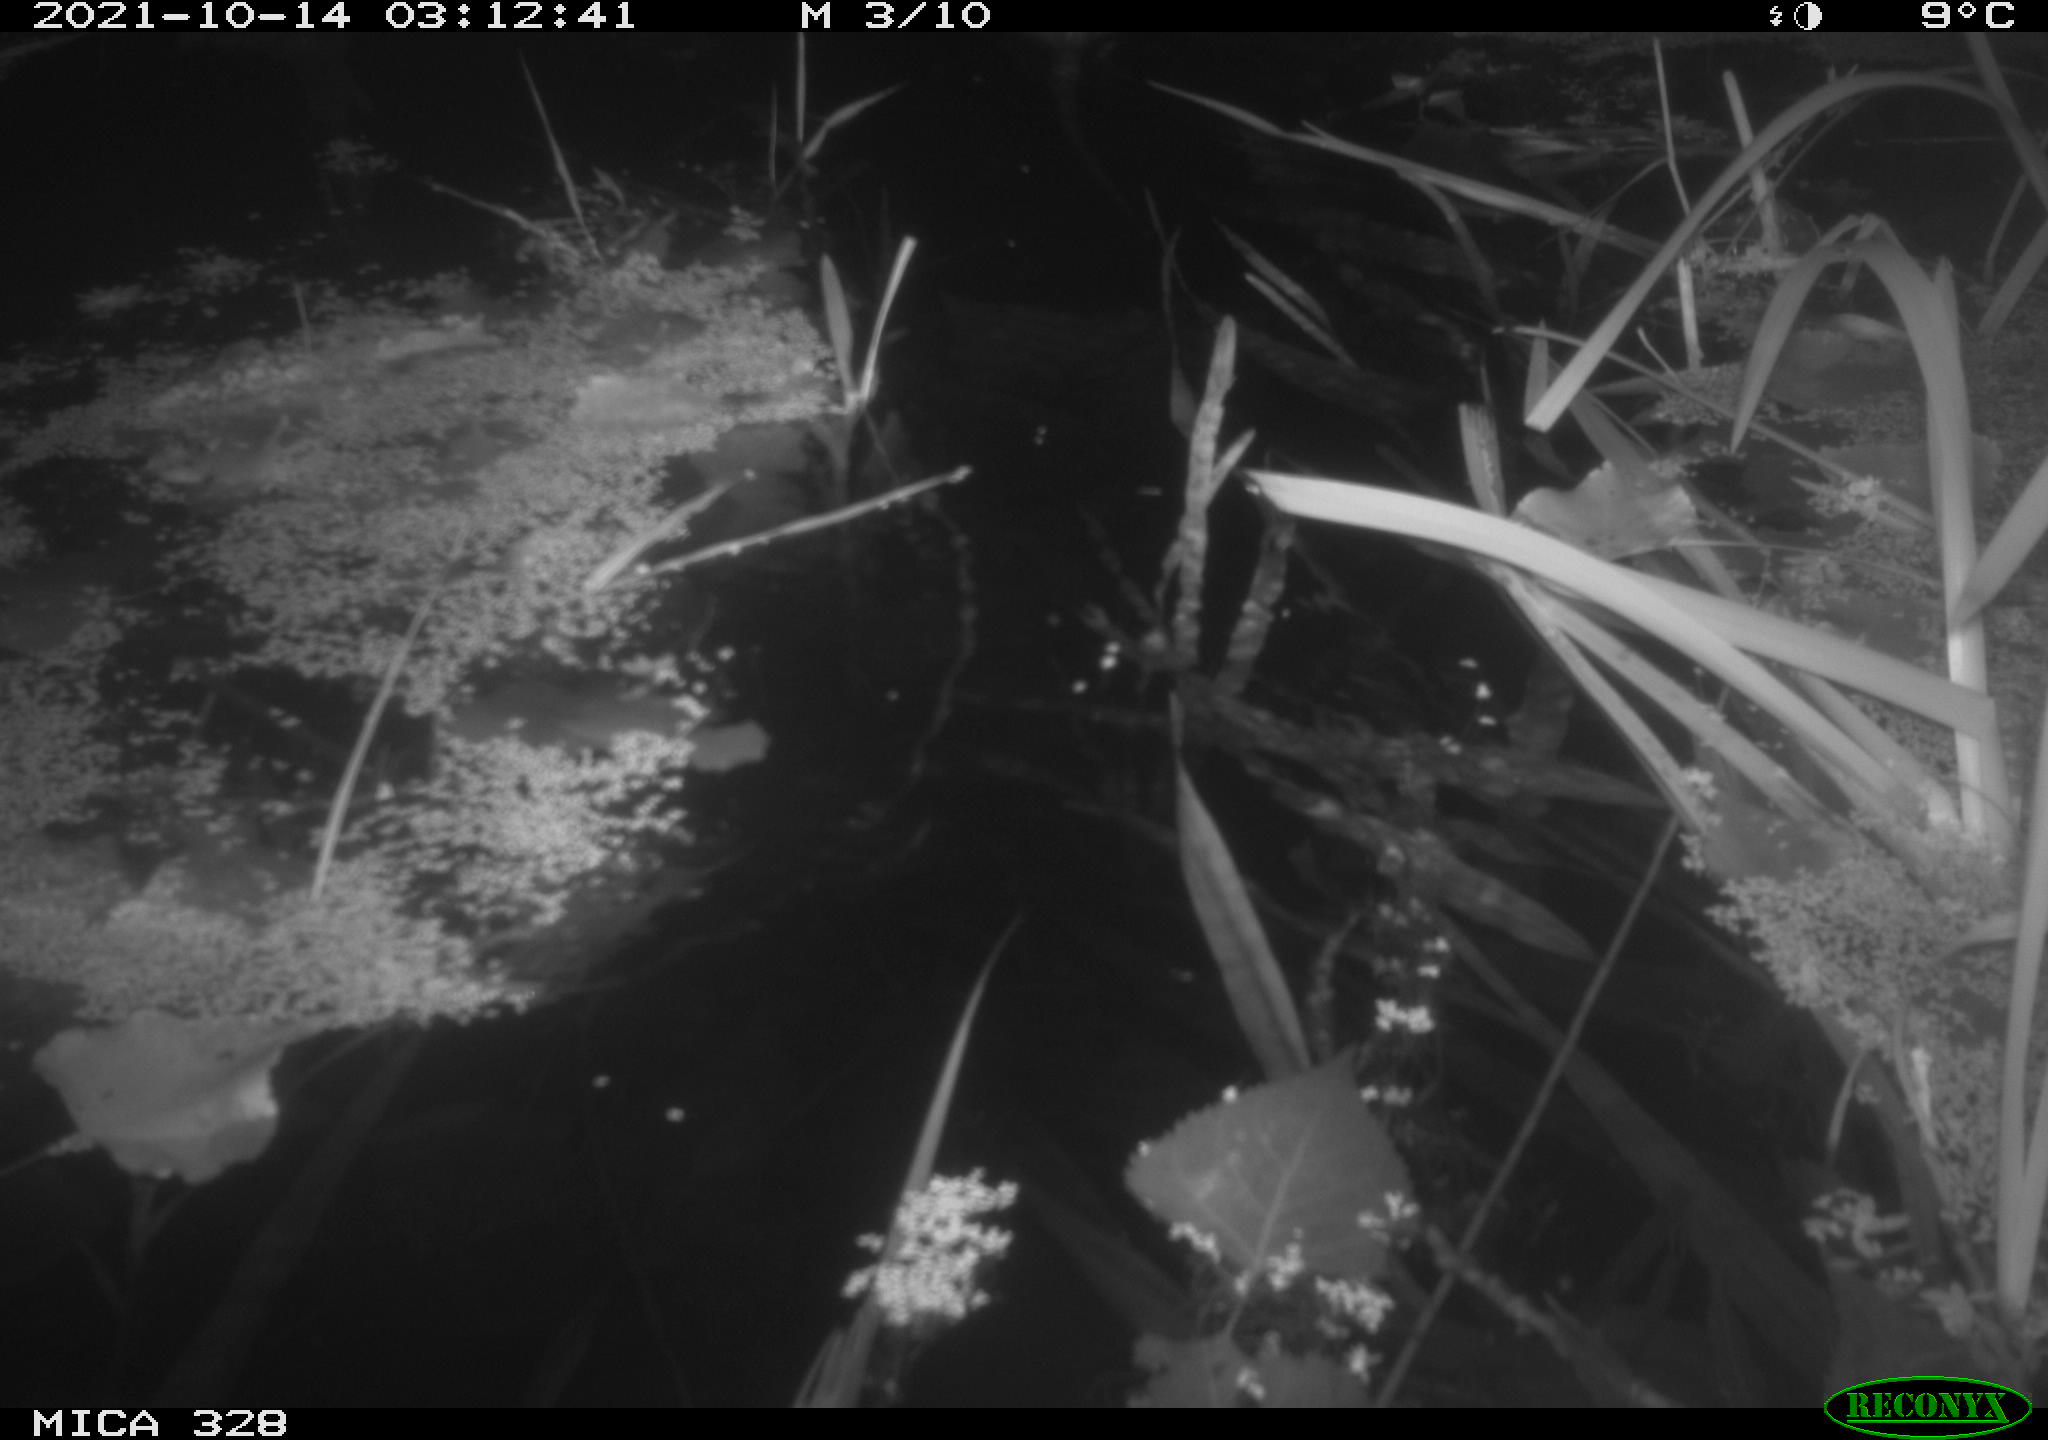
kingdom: Animalia
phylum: Chordata
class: Mammalia
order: Rodentia
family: Cricetidae
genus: Ondatra
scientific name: Ondatra zibethicus
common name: Muskrat
